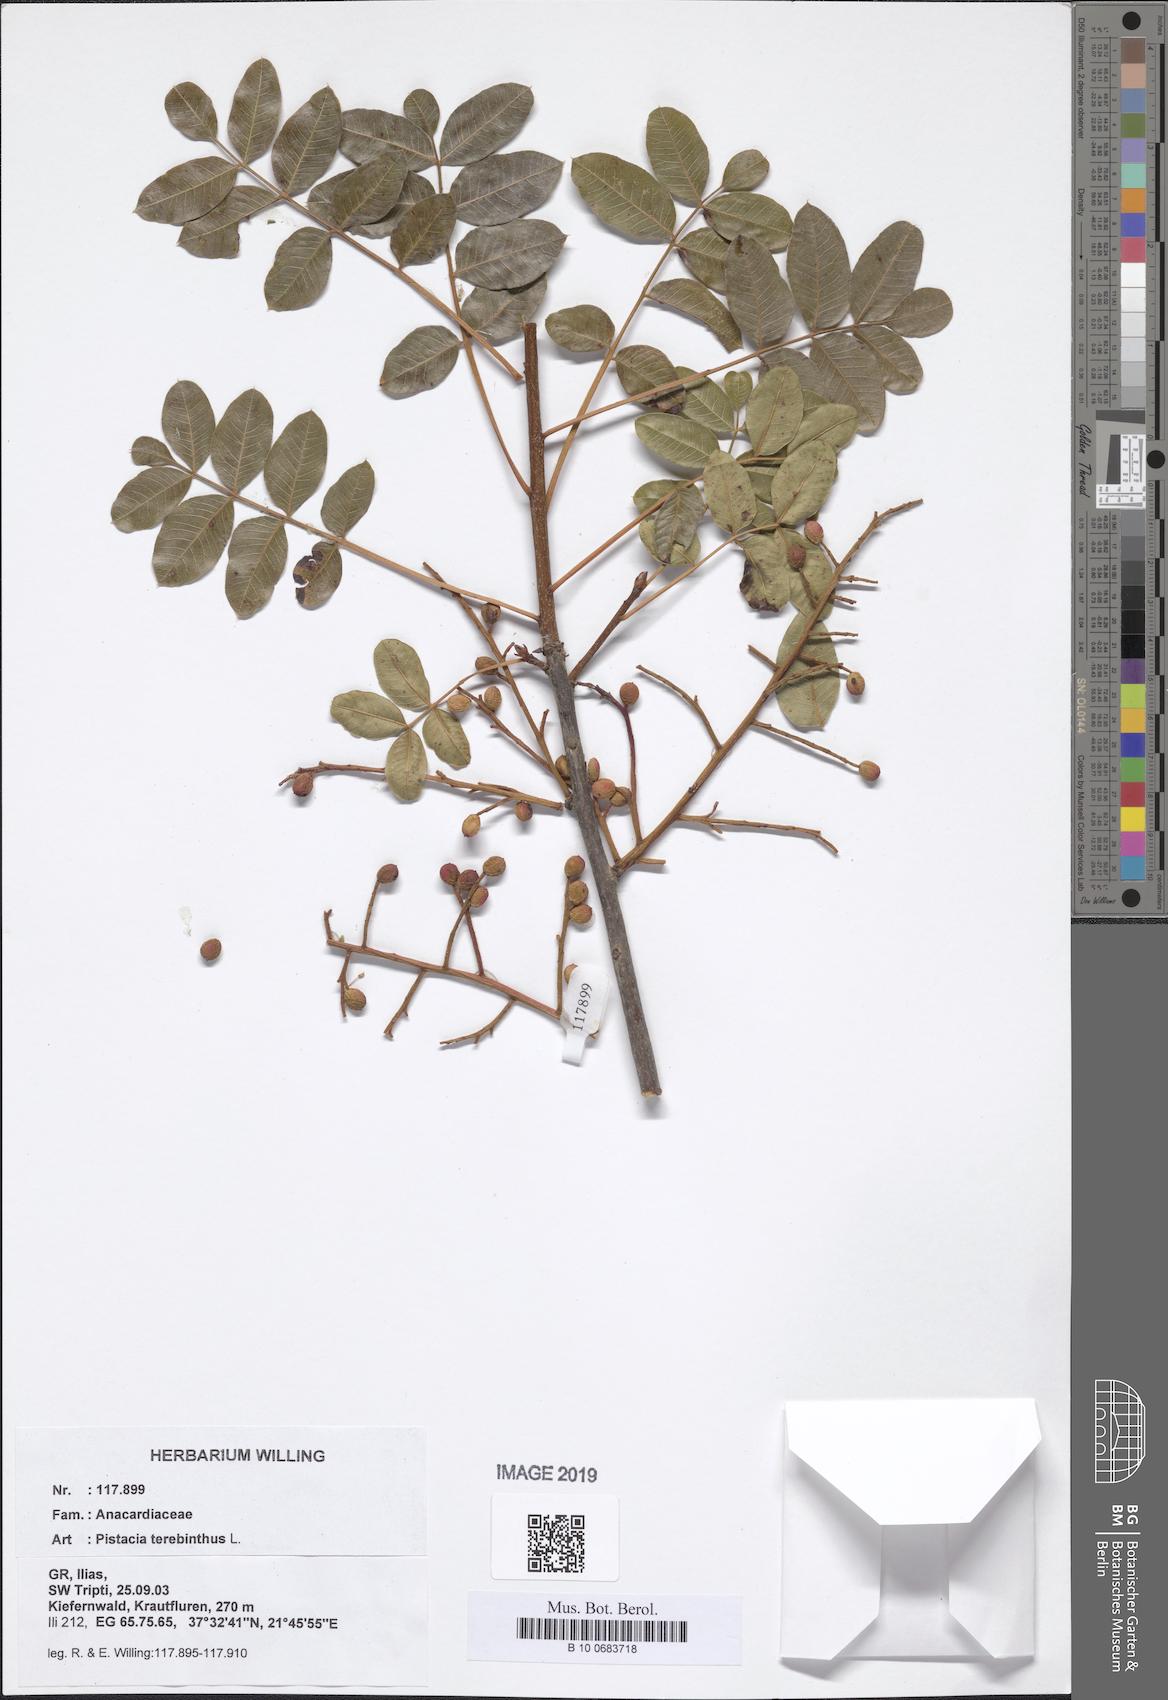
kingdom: Plantae
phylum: Tracheophyta
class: Magnoliopsida
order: Sapindales
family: Anacardiaceae
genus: Pistacia
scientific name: Pistacia terebinthus
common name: Terebinth
